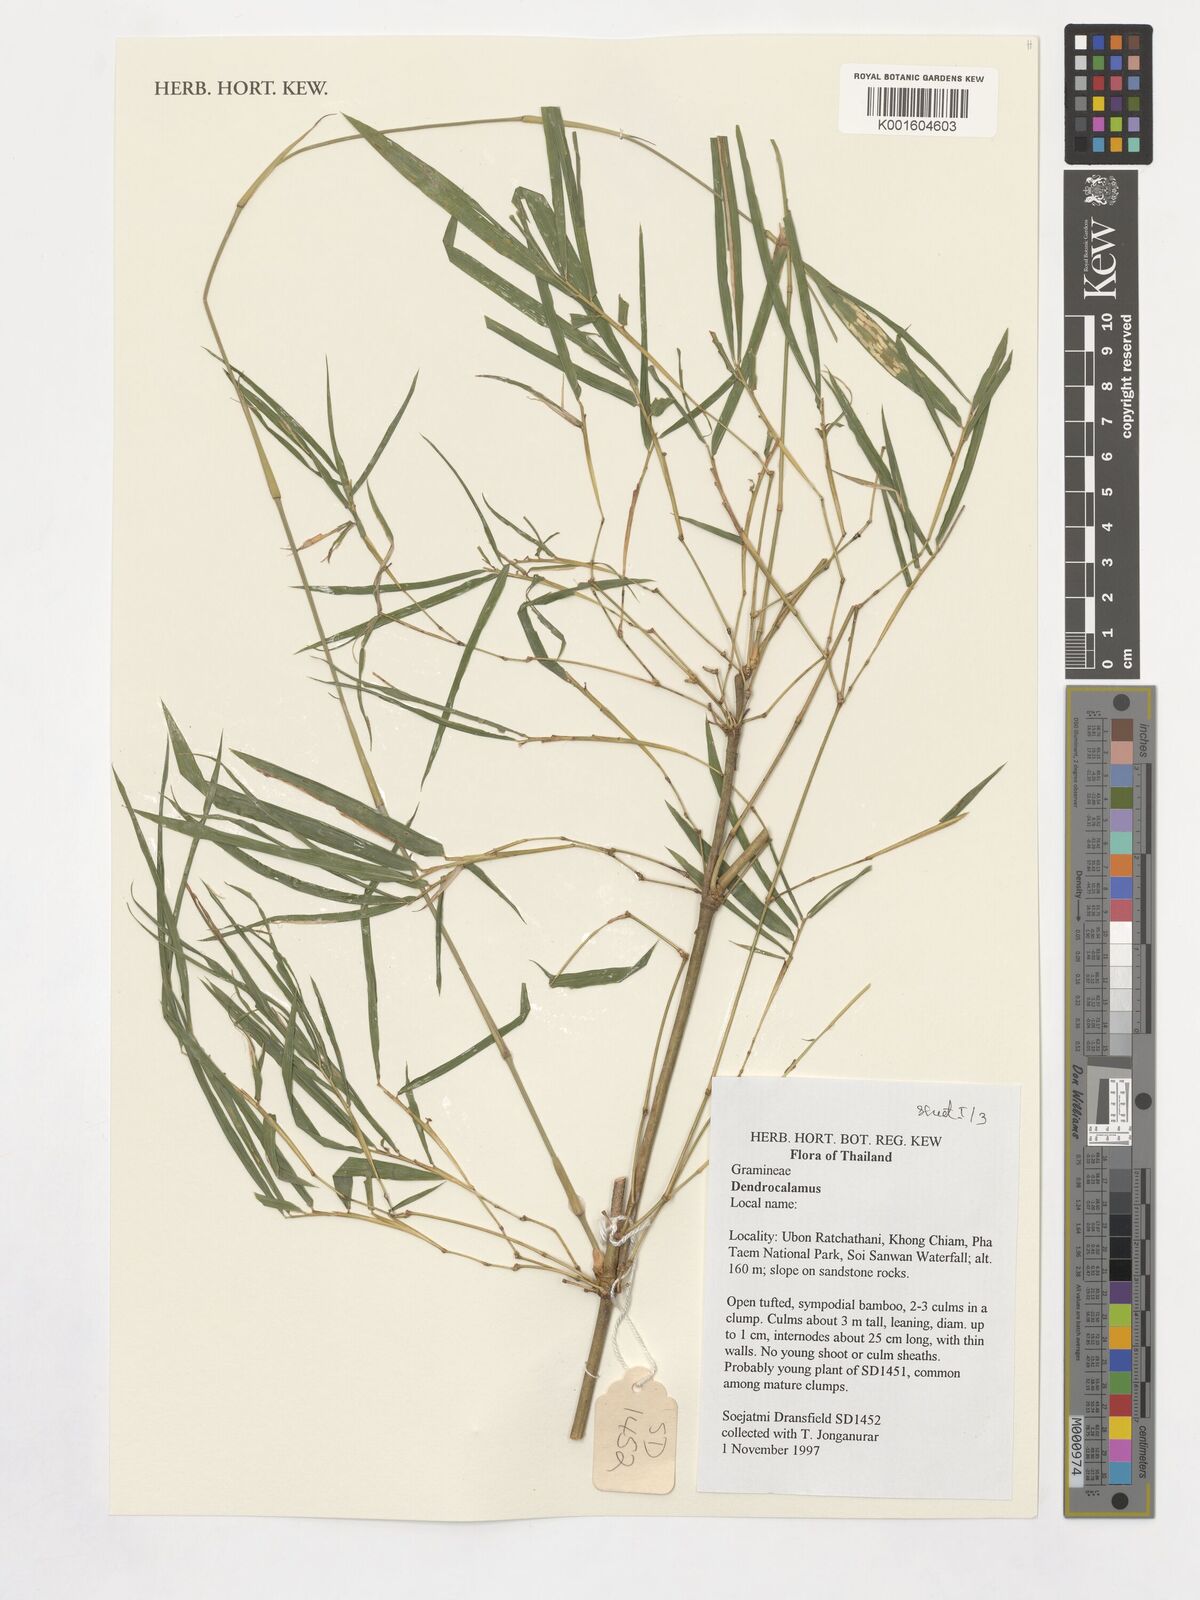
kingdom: Plantae
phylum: Tracheophyta
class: Liliopsida
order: Poales
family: Poaceae
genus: Dendrocalamus
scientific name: Dendrocalamus
